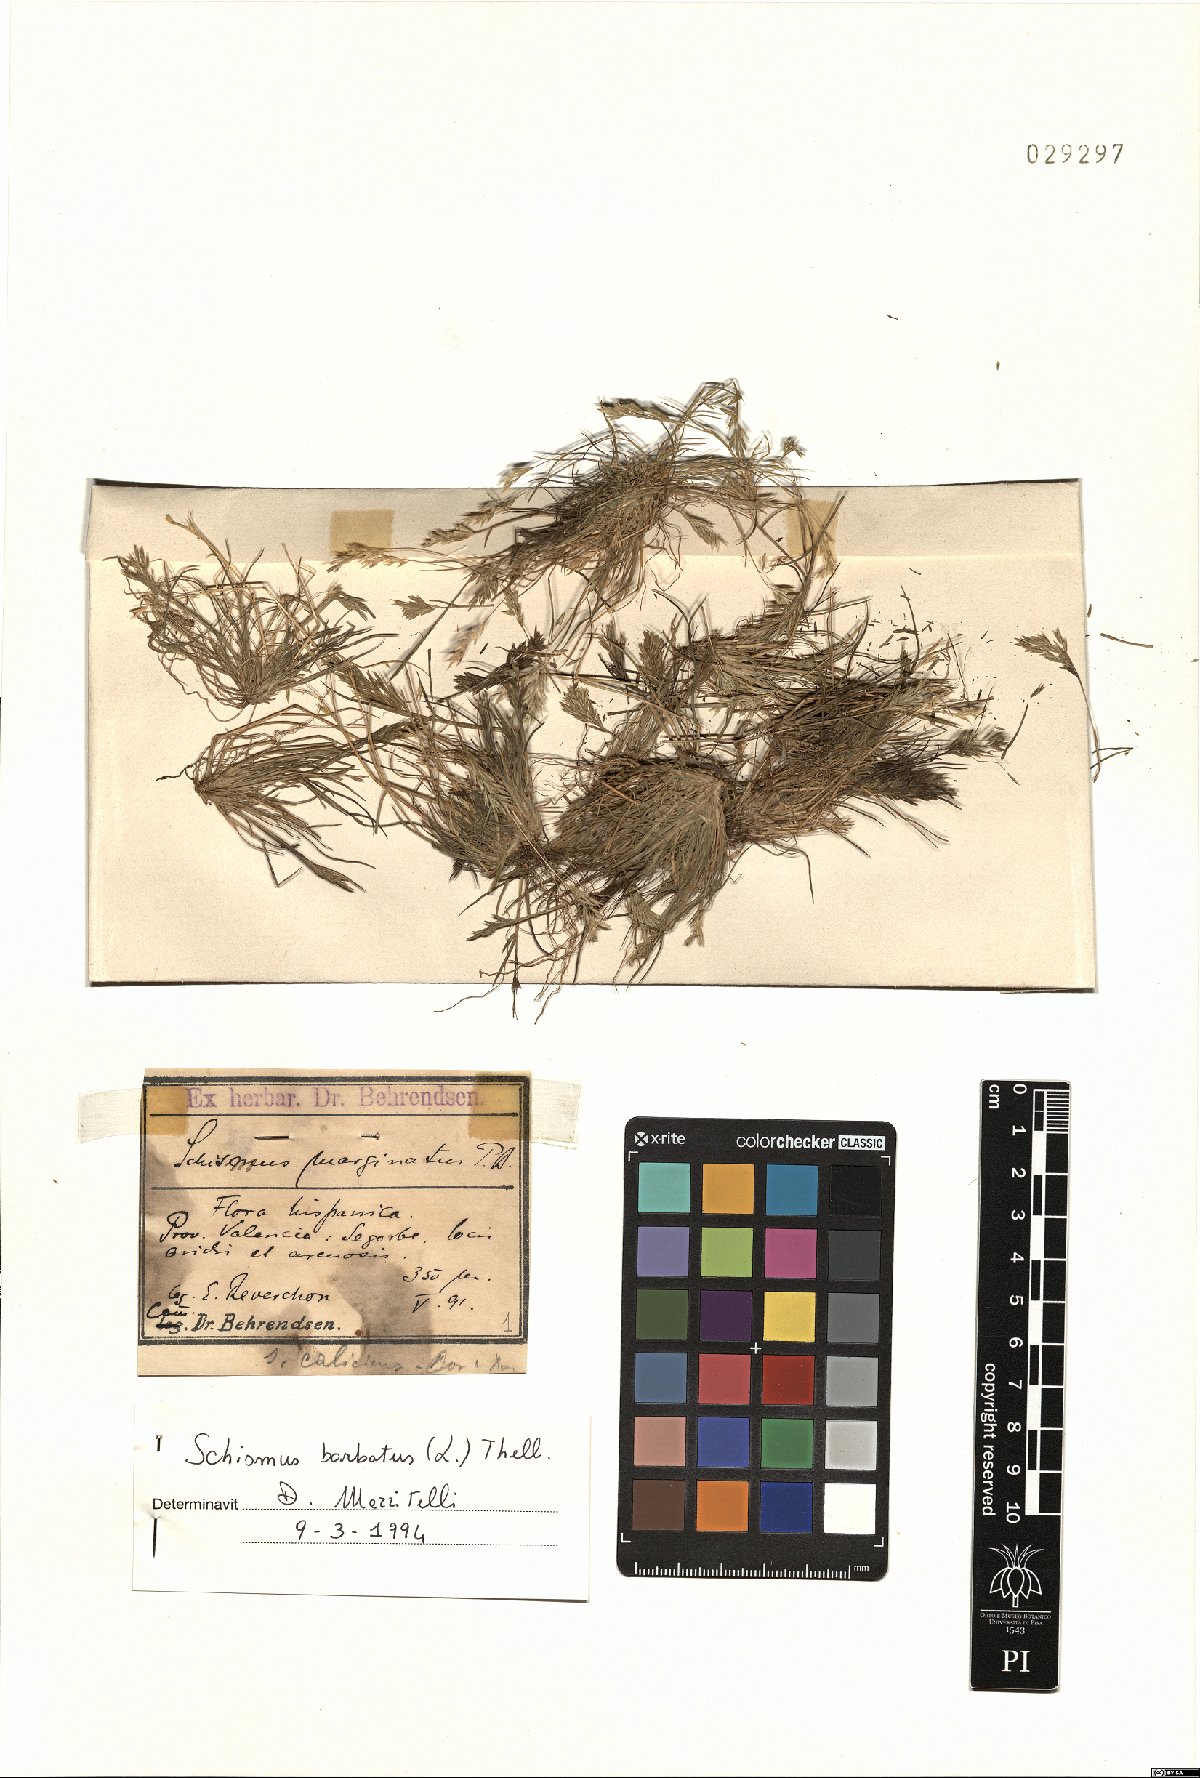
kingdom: Plantae
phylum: Tracheophyta
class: Liliopsida
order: Poales
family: Poaceae
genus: Schismus
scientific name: Schismus barbatus
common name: Kelch-grass
